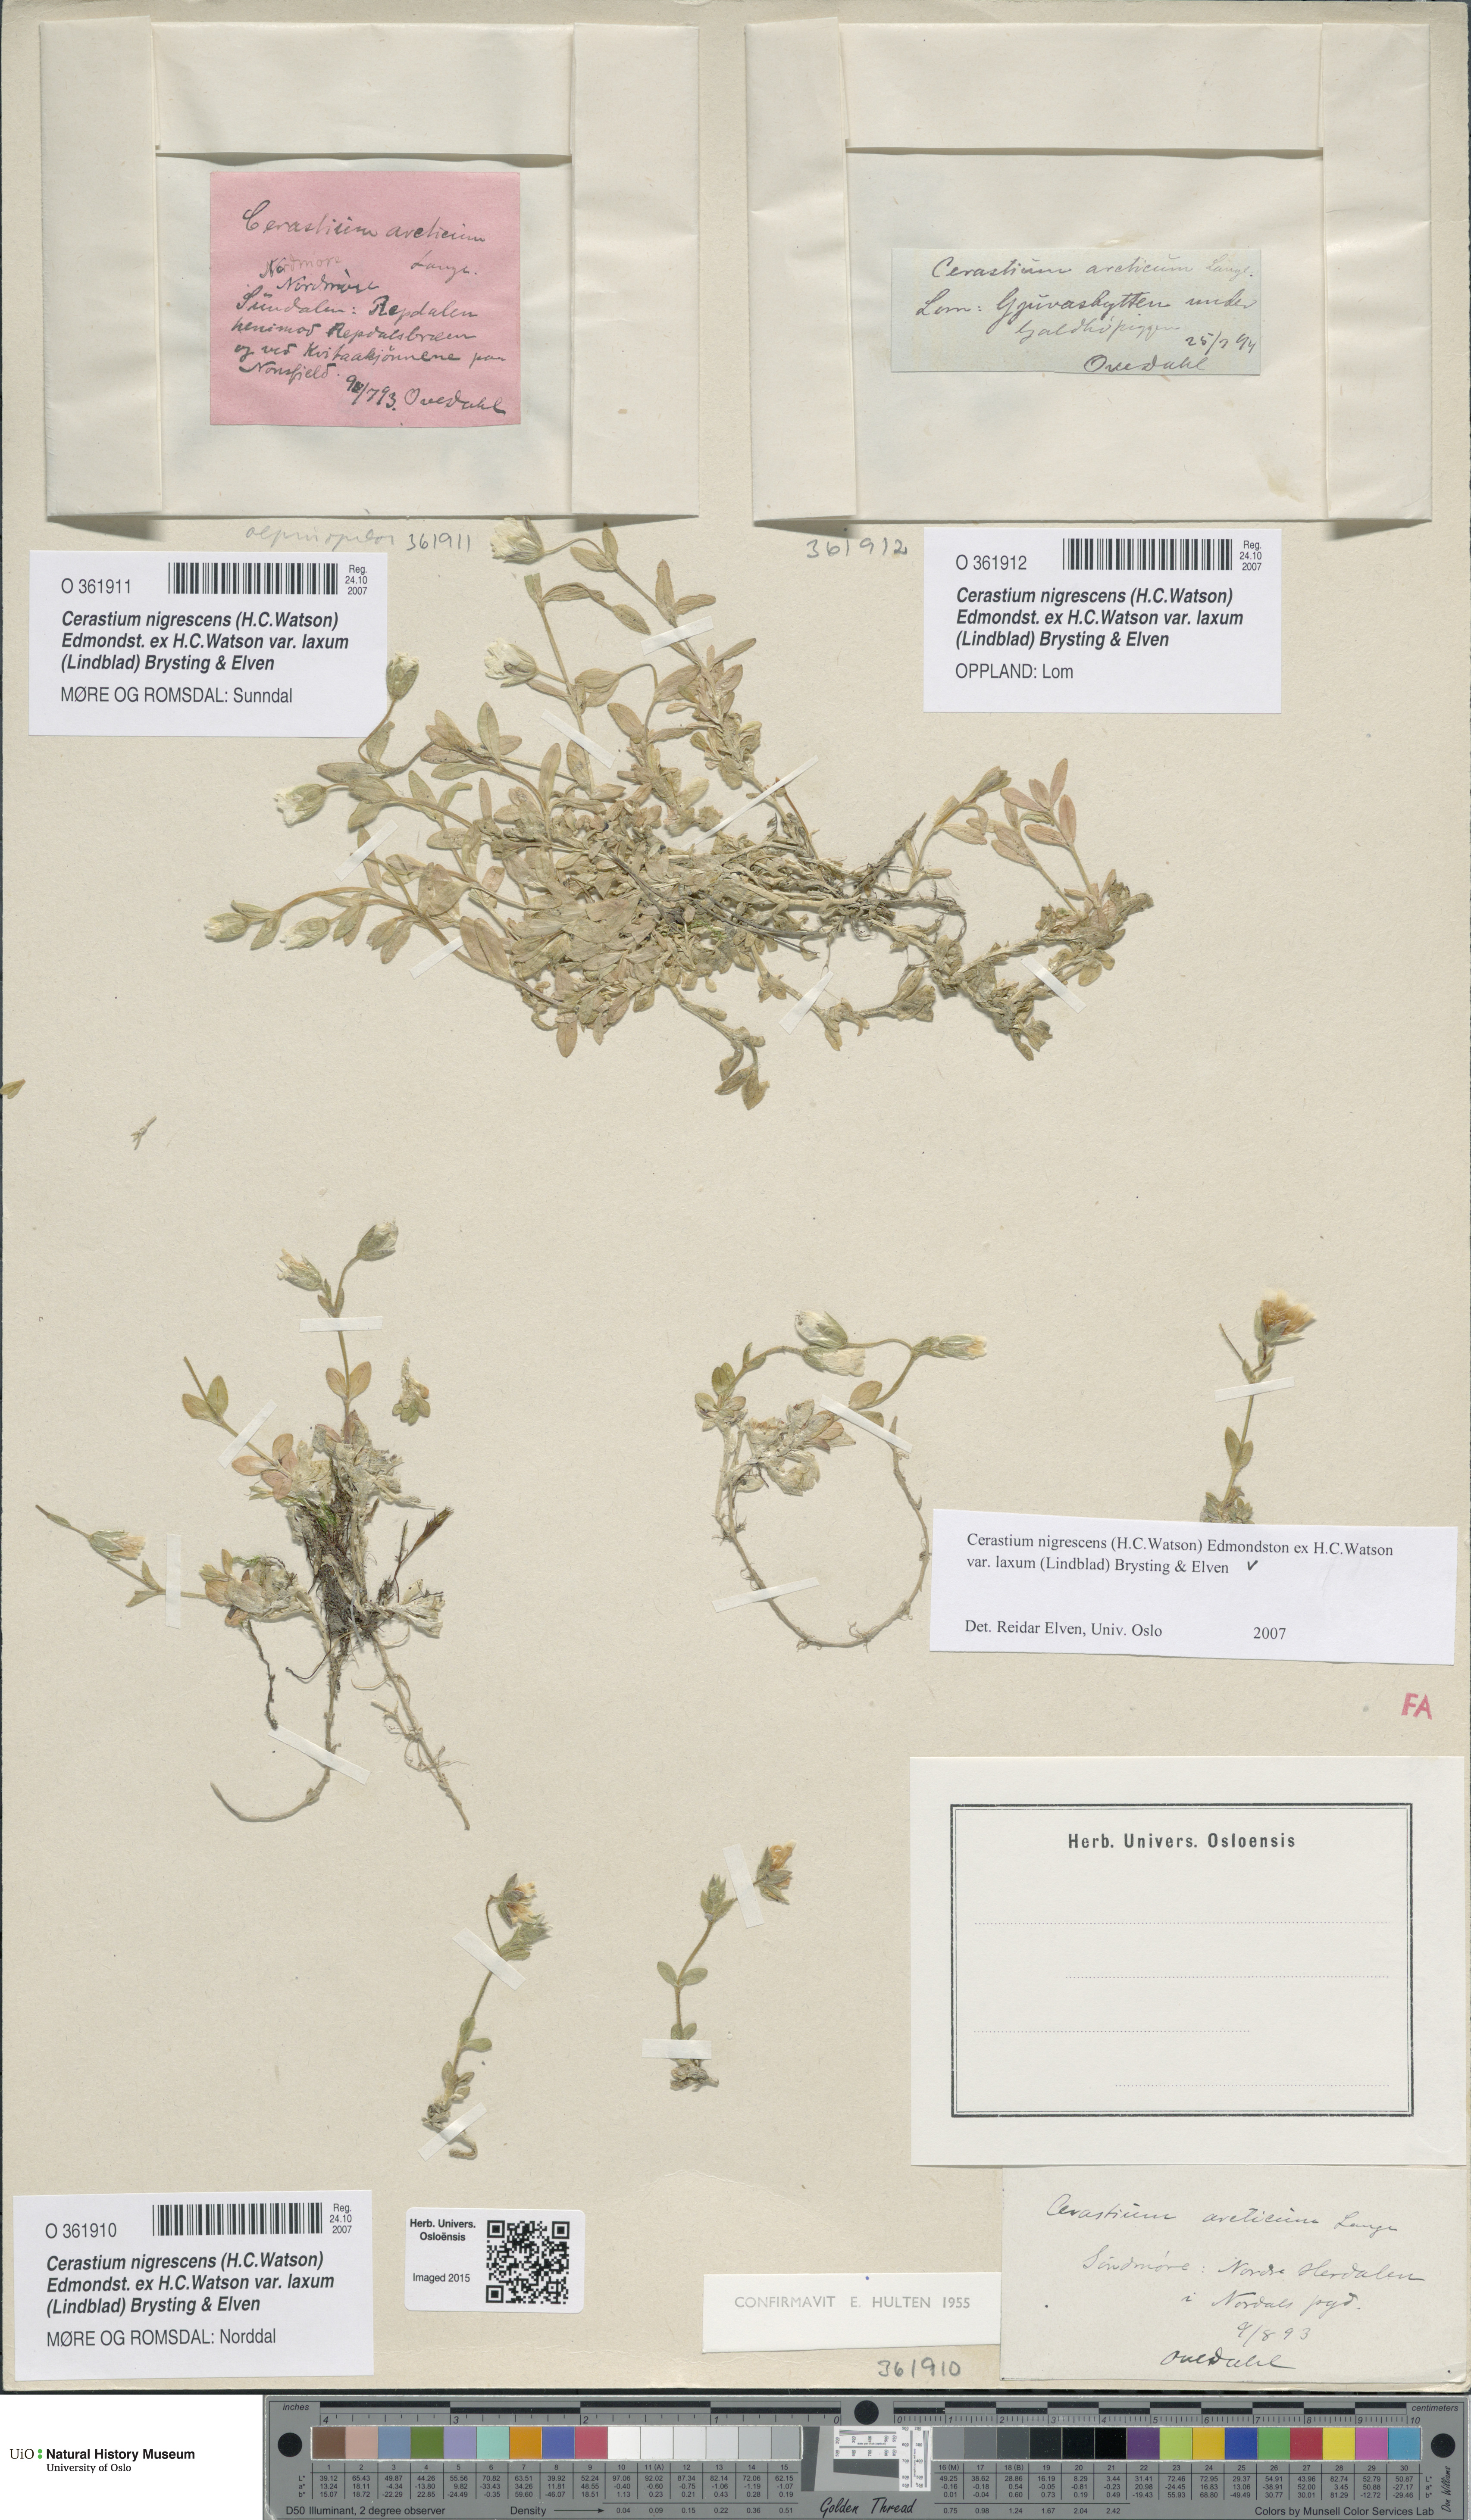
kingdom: Plantae
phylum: Tracheophyta
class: Magnoliopsida
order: Caryophyllales
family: Caryophyllaceae
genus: Cerastium
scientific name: Cerastium nigrescens
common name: Shetland mouse-ear
